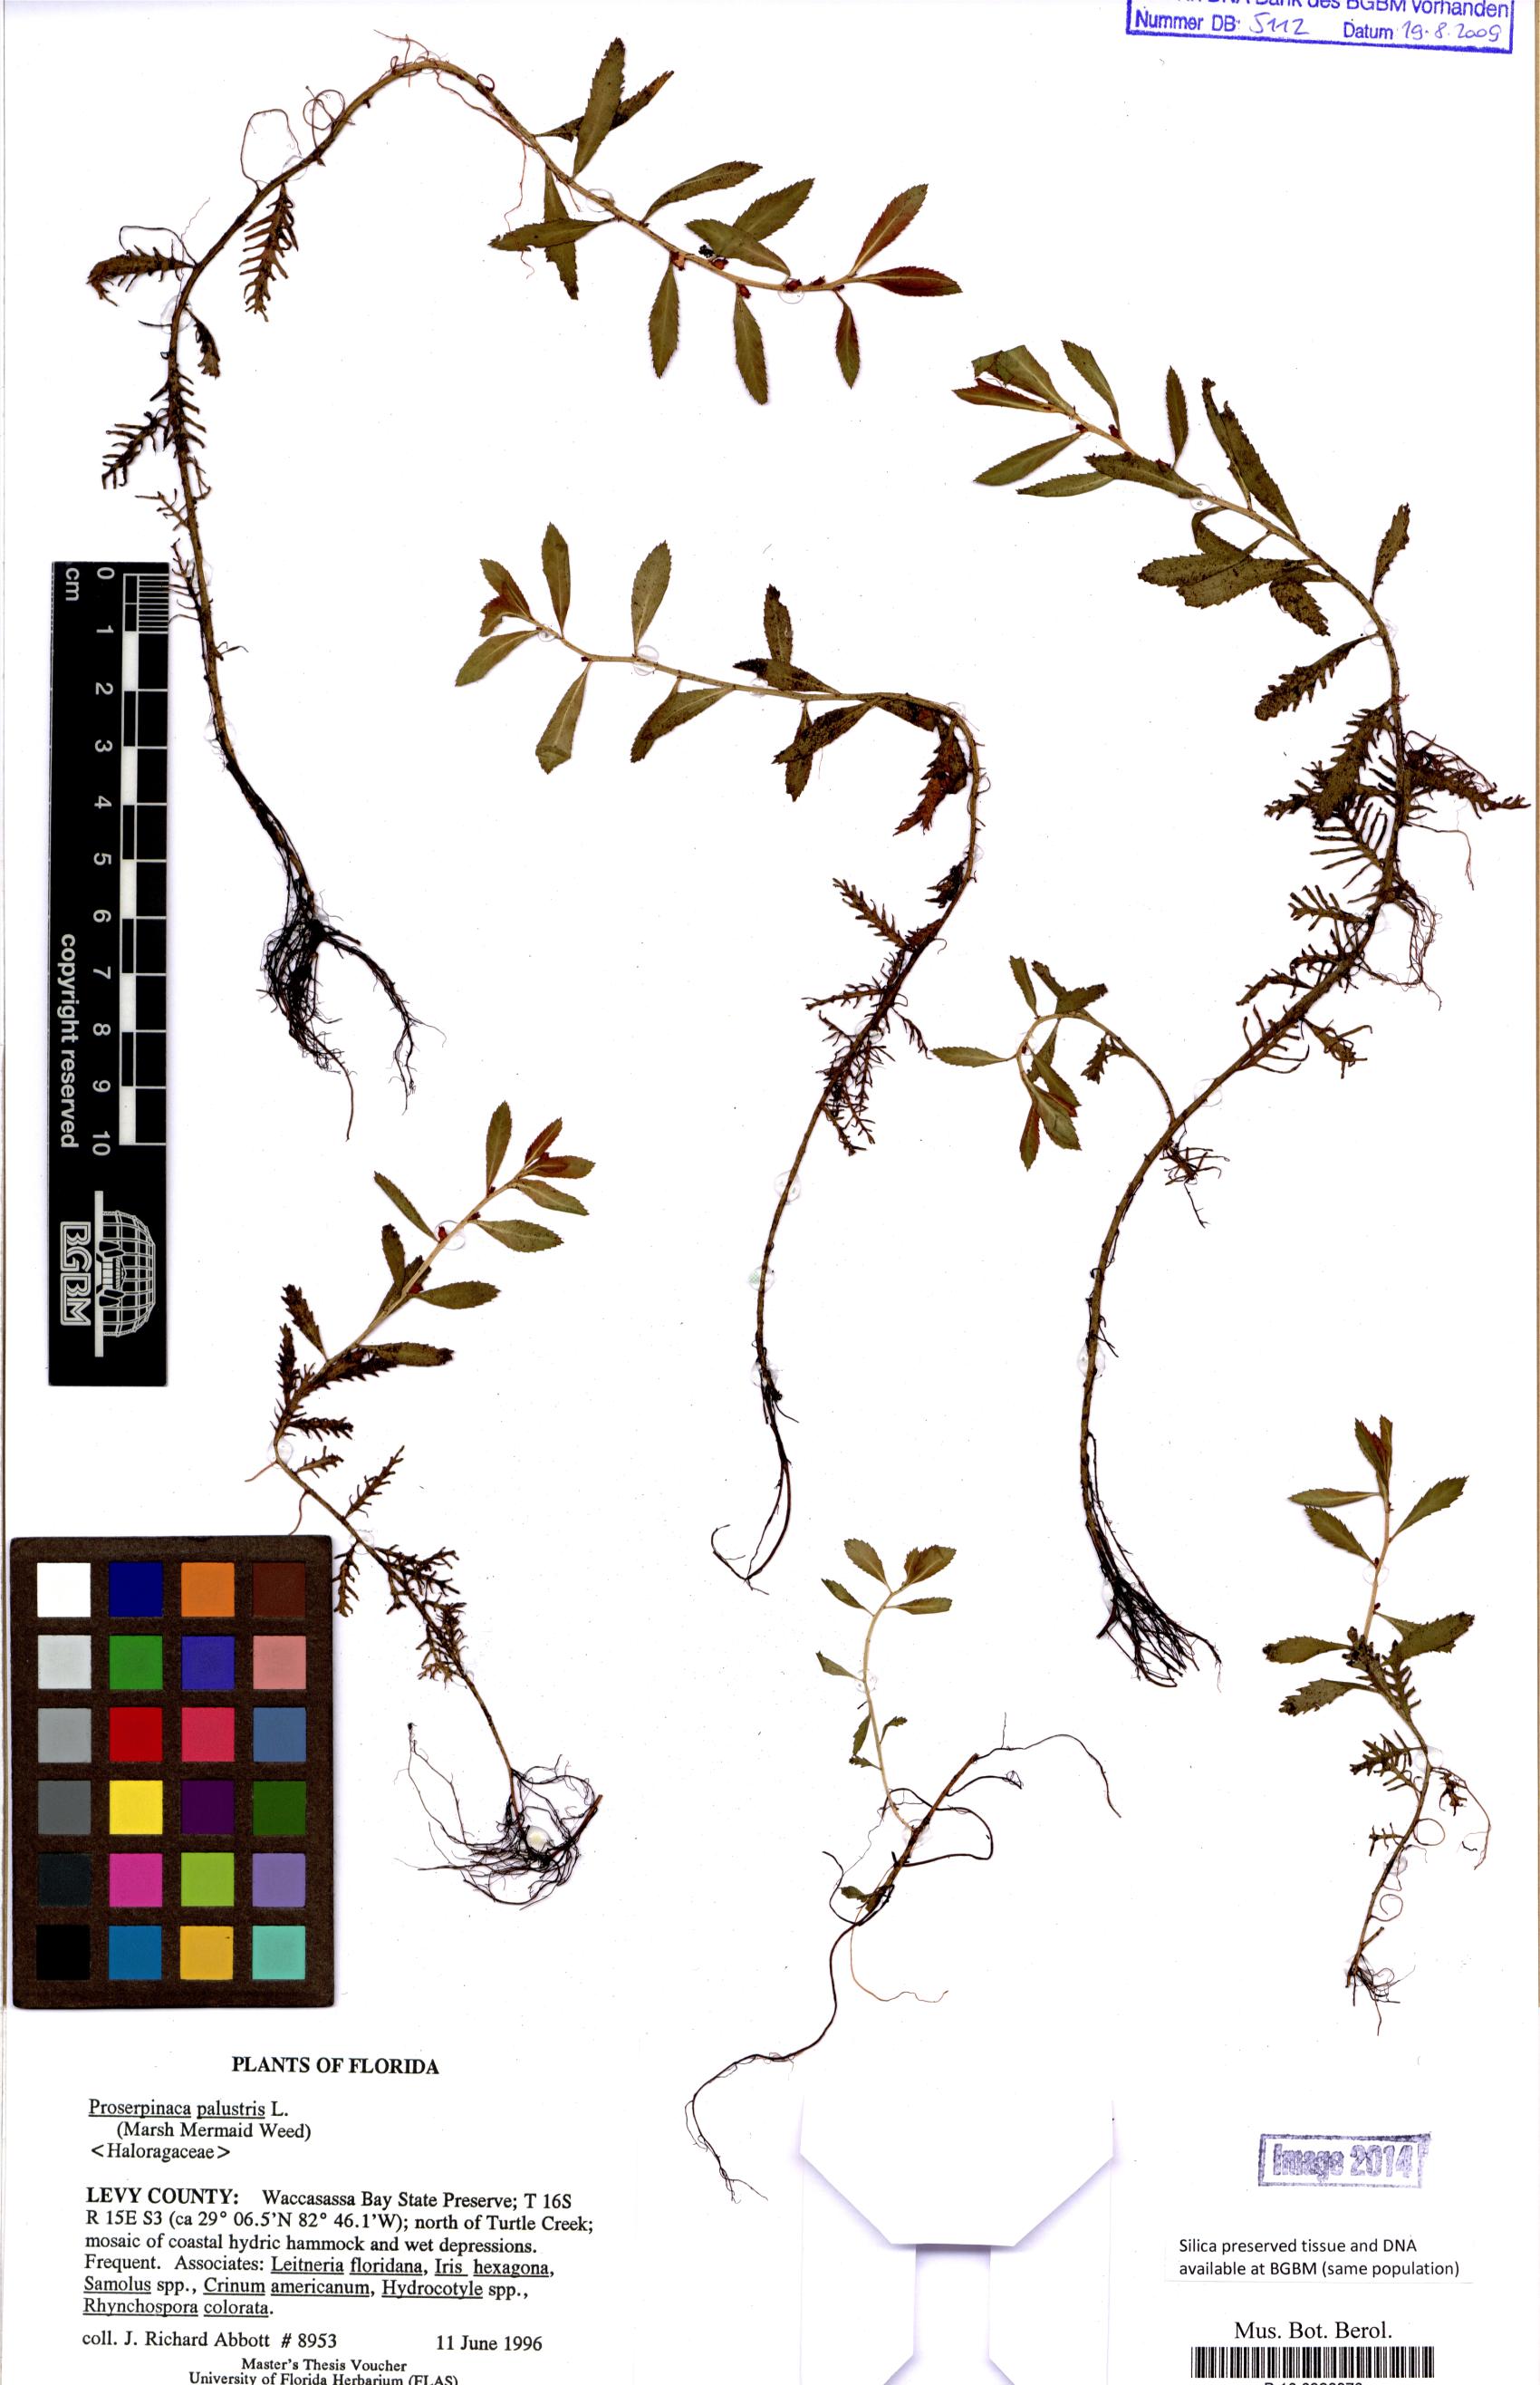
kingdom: Plantae
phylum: Tracheophyta
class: Magnoliopsida
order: Saxifragales
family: Haloragaceae
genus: Proserpinaca
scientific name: Proserpinaca palustris
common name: Marsh mermaidweed
